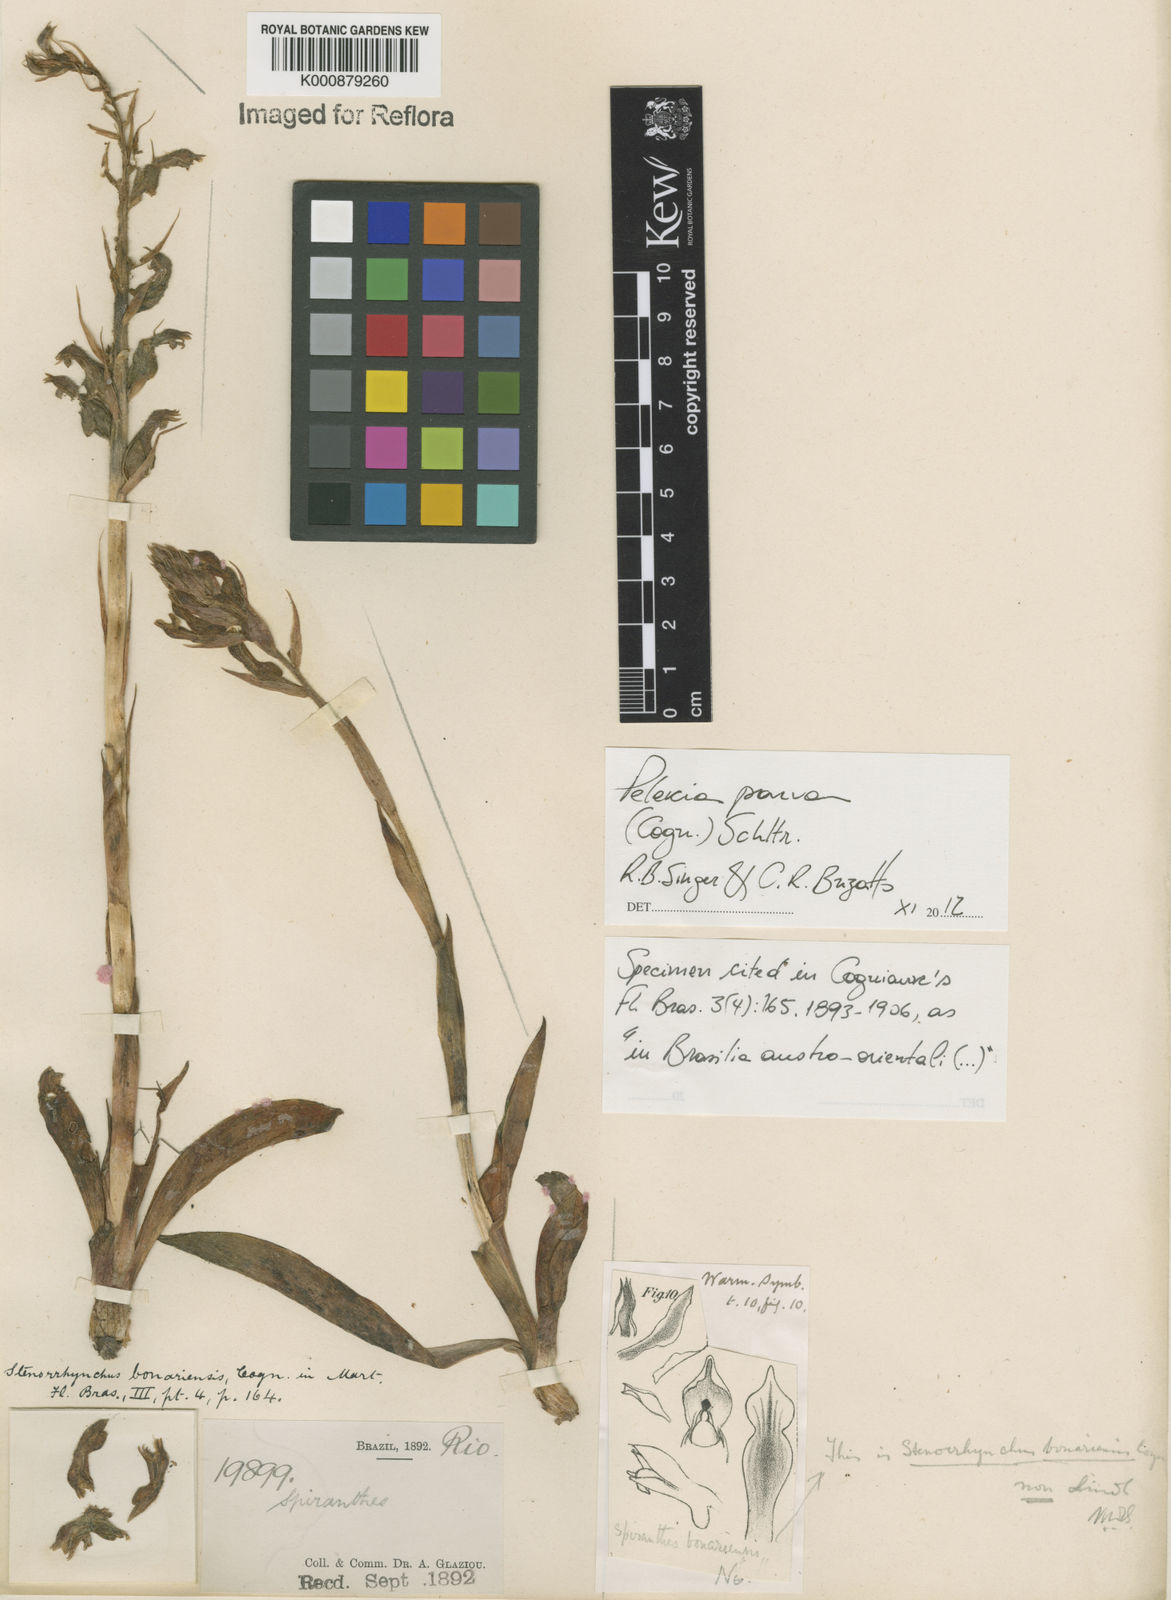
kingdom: Plantae
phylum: Tracheophyta
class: Liliopsida
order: Asparagales
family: Orchidaceae
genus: Pelexia
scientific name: Pelexia parva
